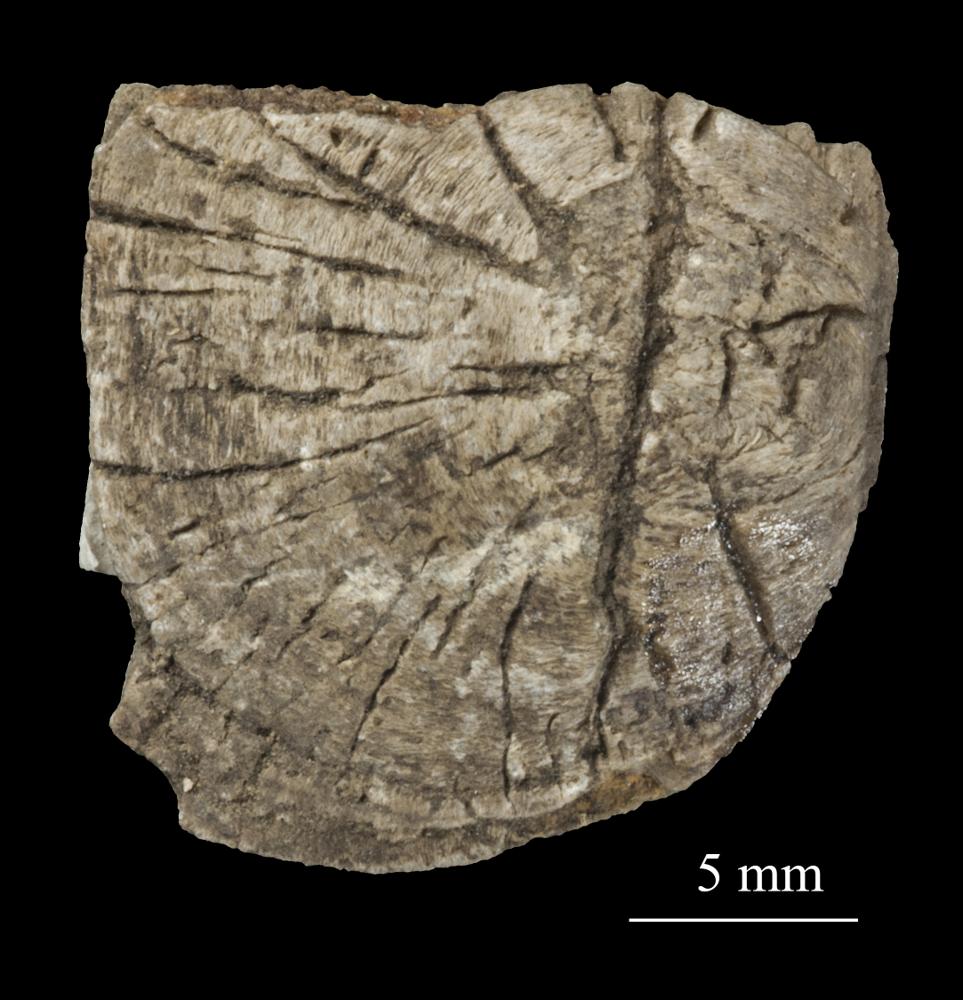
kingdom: Animalia
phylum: Brachiopoda
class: Craniata
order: Craniida
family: Craniidae
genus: Pseudocrania
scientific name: Pseudocrania
